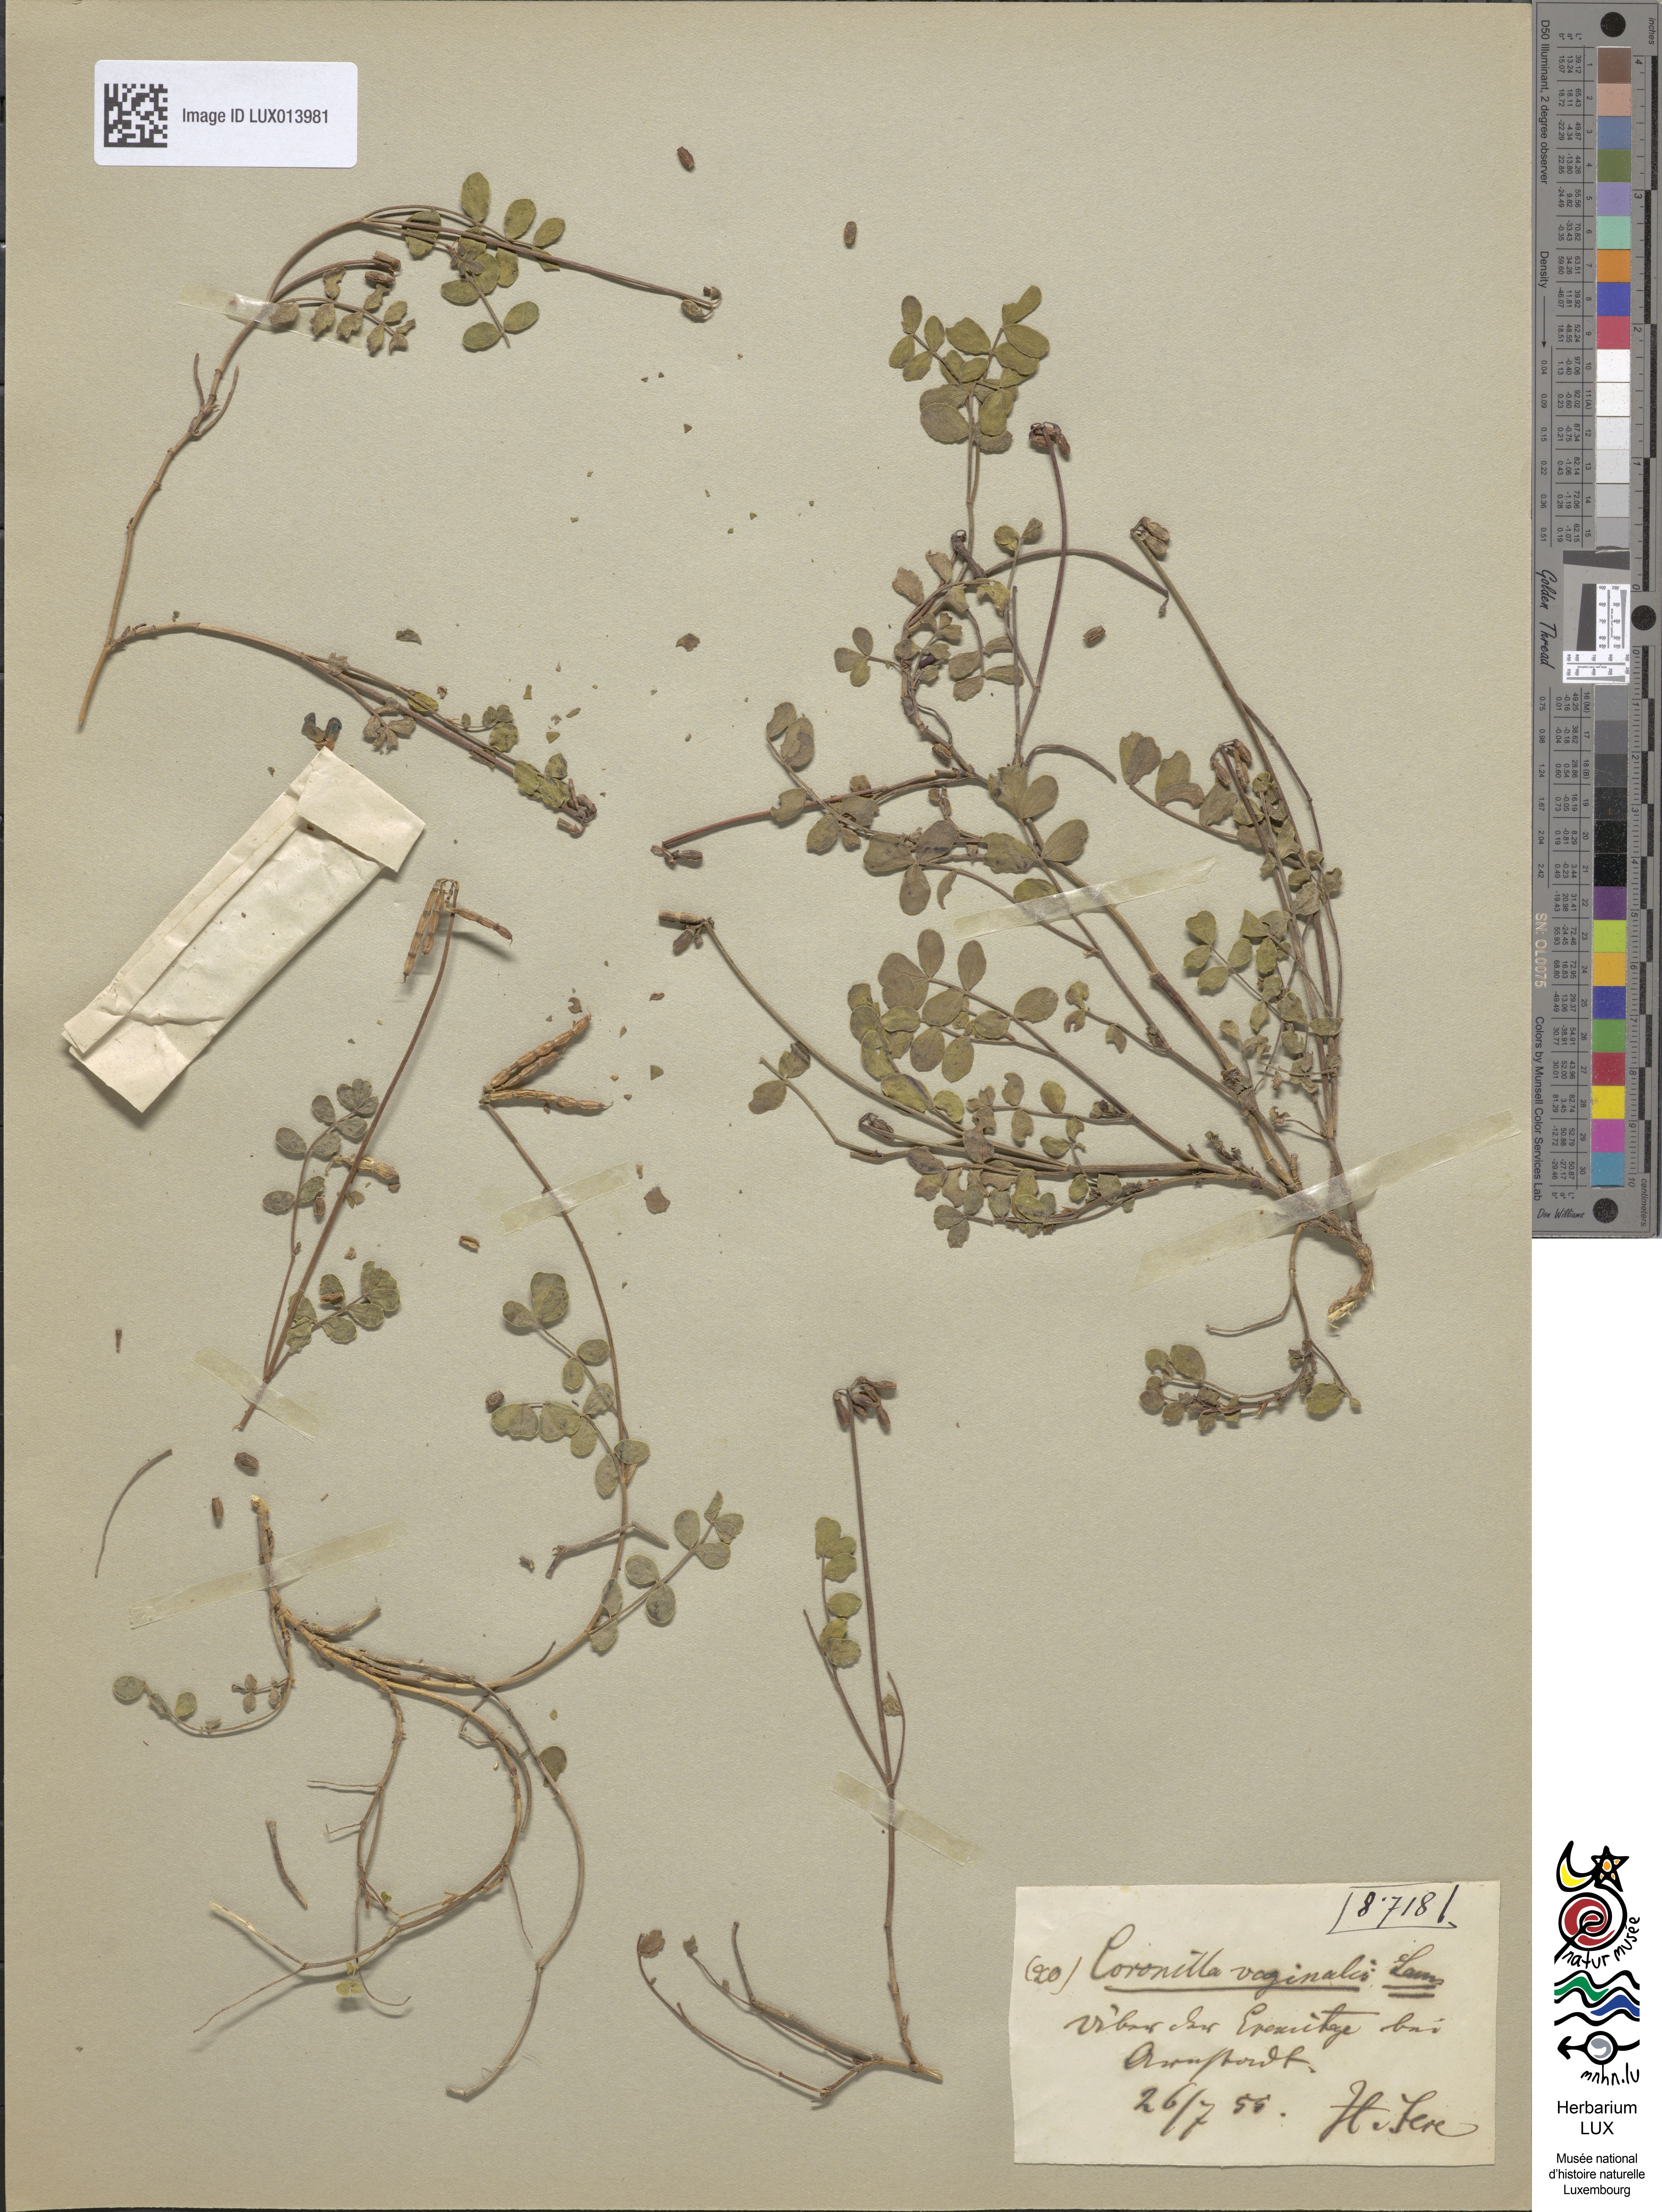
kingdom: Plantae
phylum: Tracheophyta
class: Magnoliopsida
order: Fabales
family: Fabaceae
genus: Coronilla
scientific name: Coronilla vaginalis
